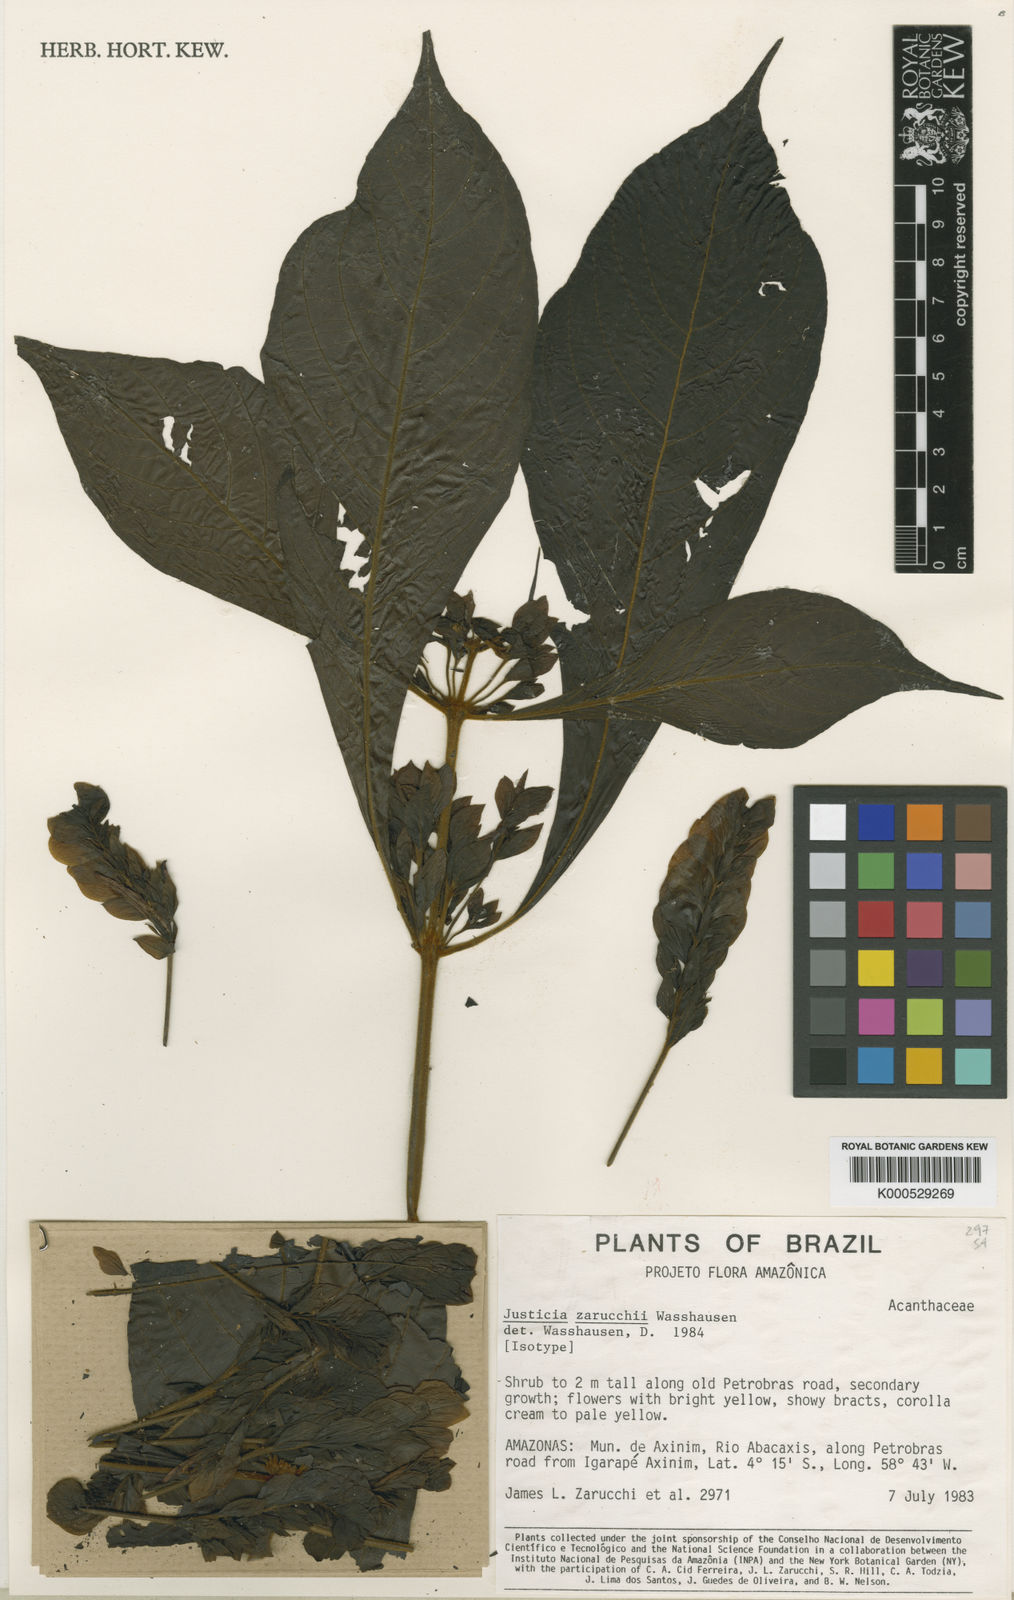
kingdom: Plantae
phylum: Tracheophyta
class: Magnoliopsida
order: Lamiales
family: Acanthaceae
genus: Justicia
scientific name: Justicia zarucchii
